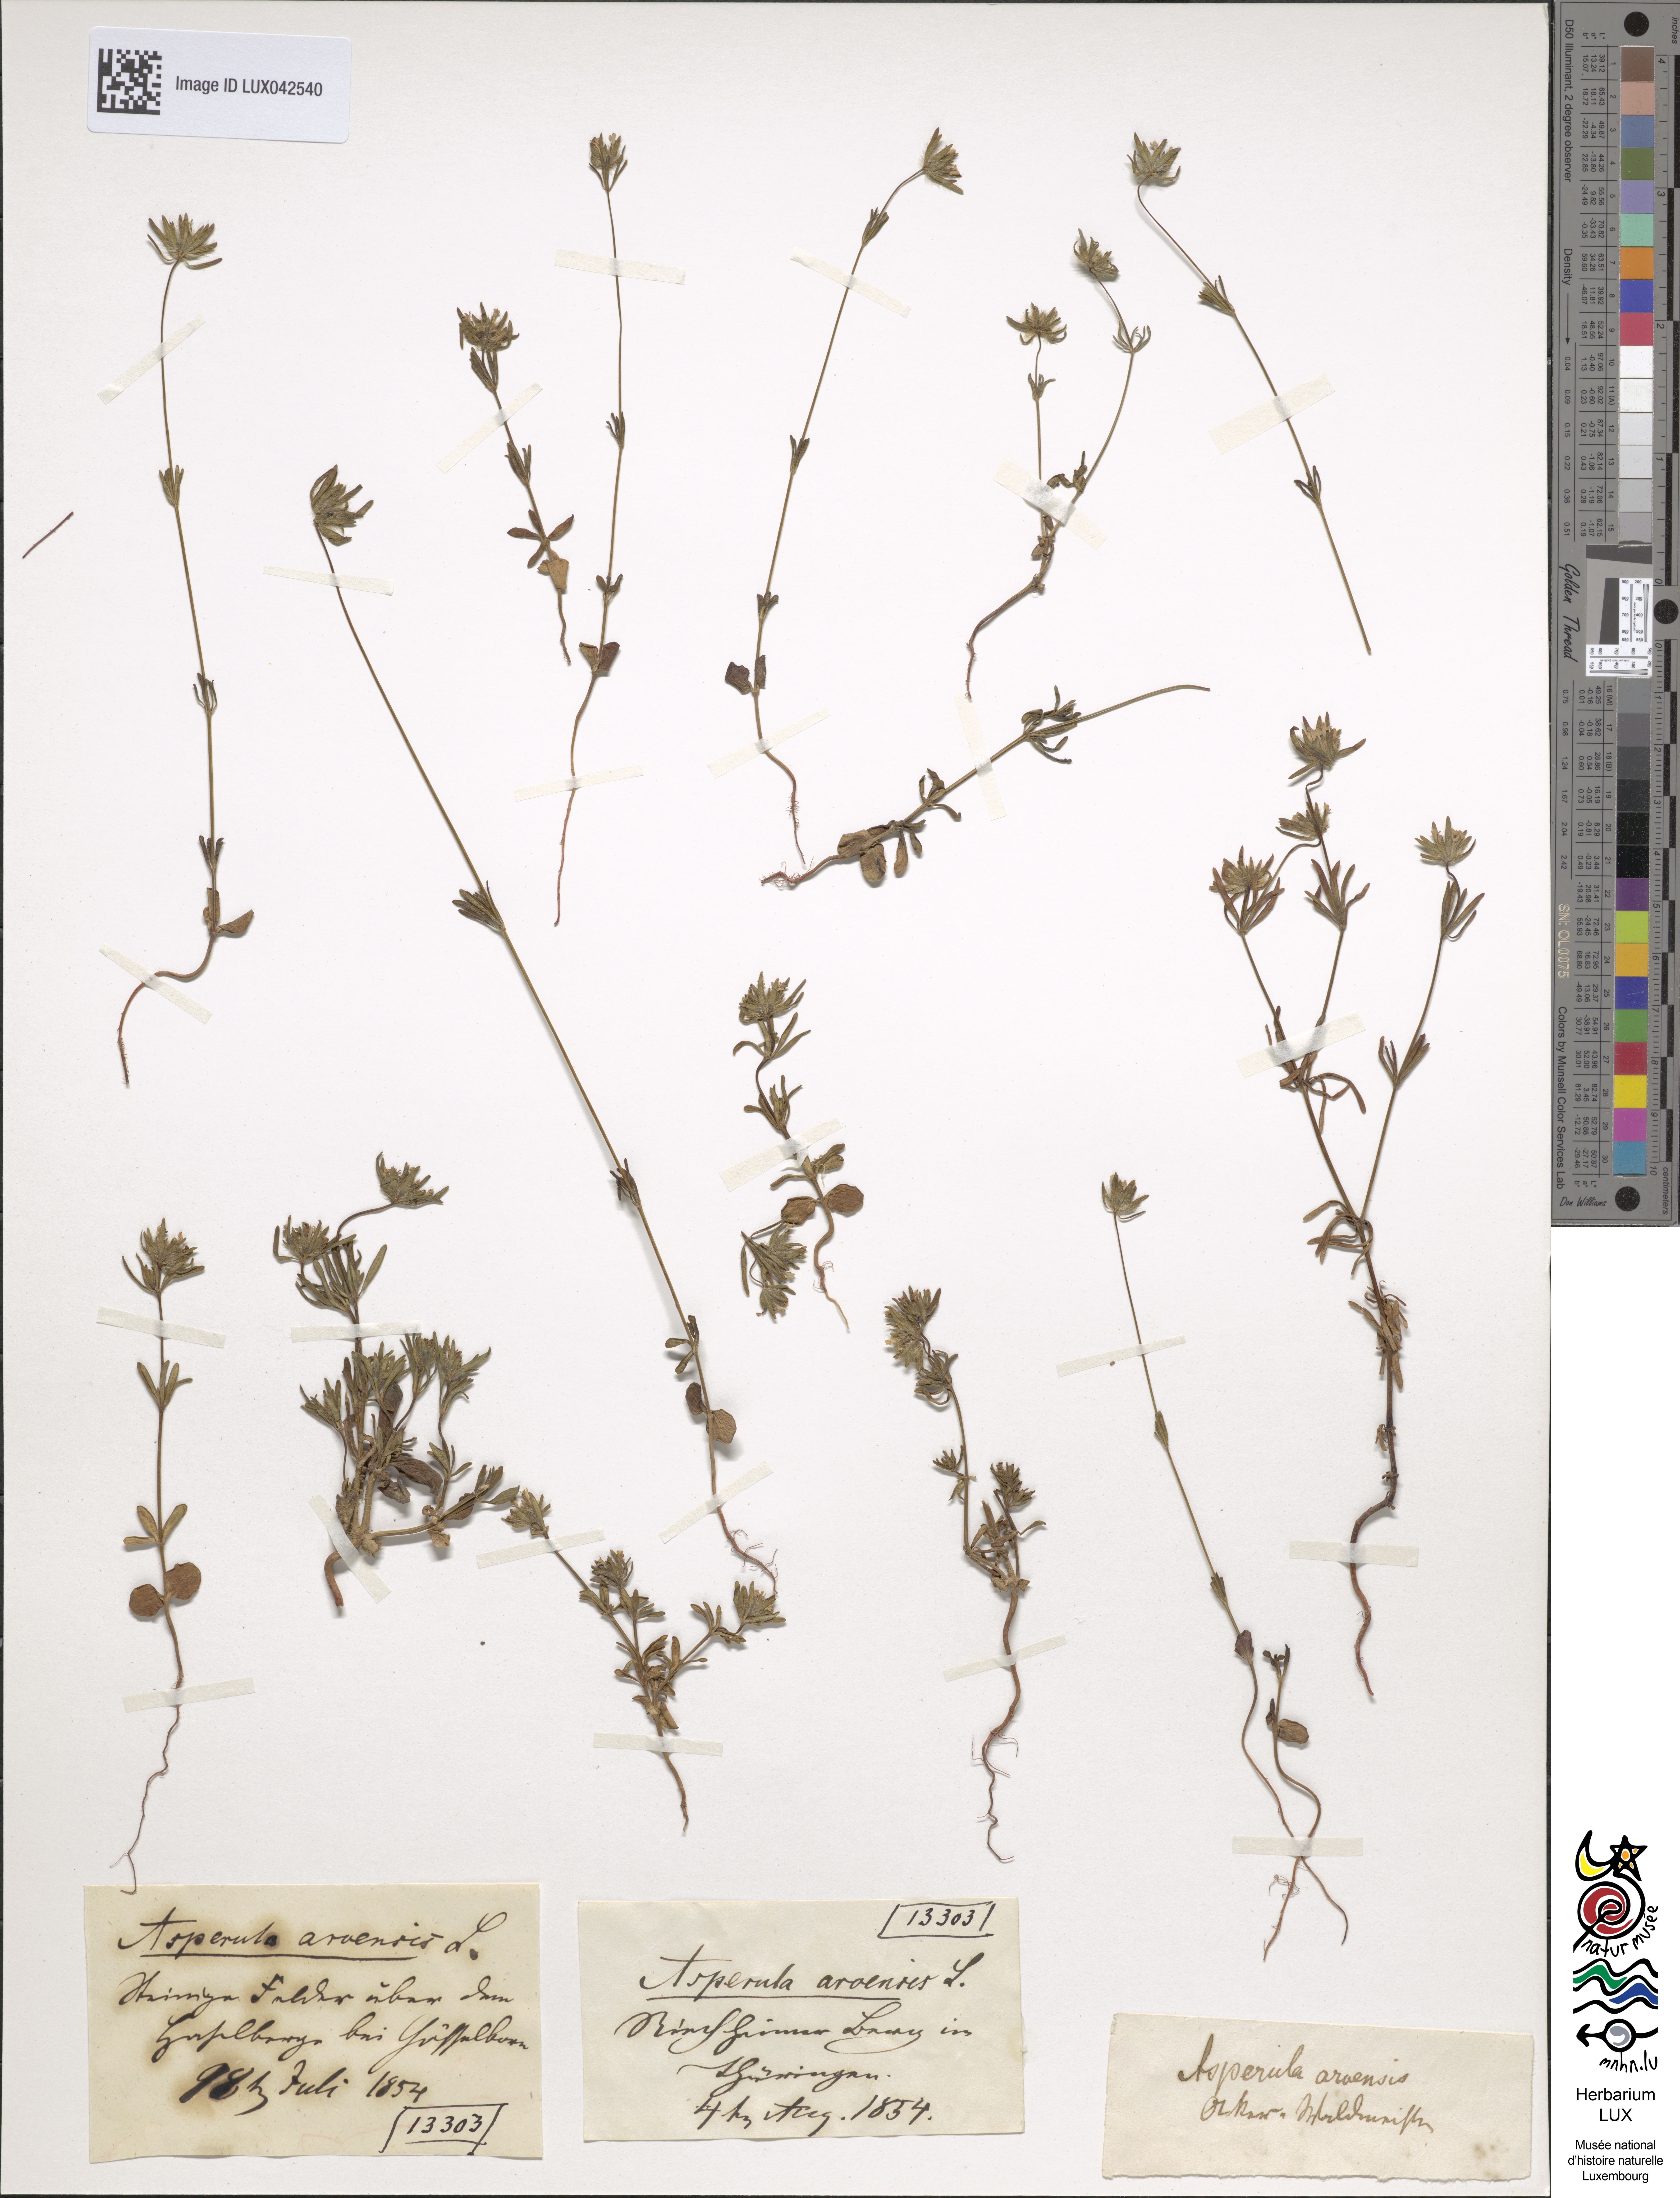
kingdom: Plantae
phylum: Tracheophyta
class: Magnoliopsida
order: Gentianales
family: Rubiaceae
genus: Asperula
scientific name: Asperula arvensis
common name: Blue woodruff
